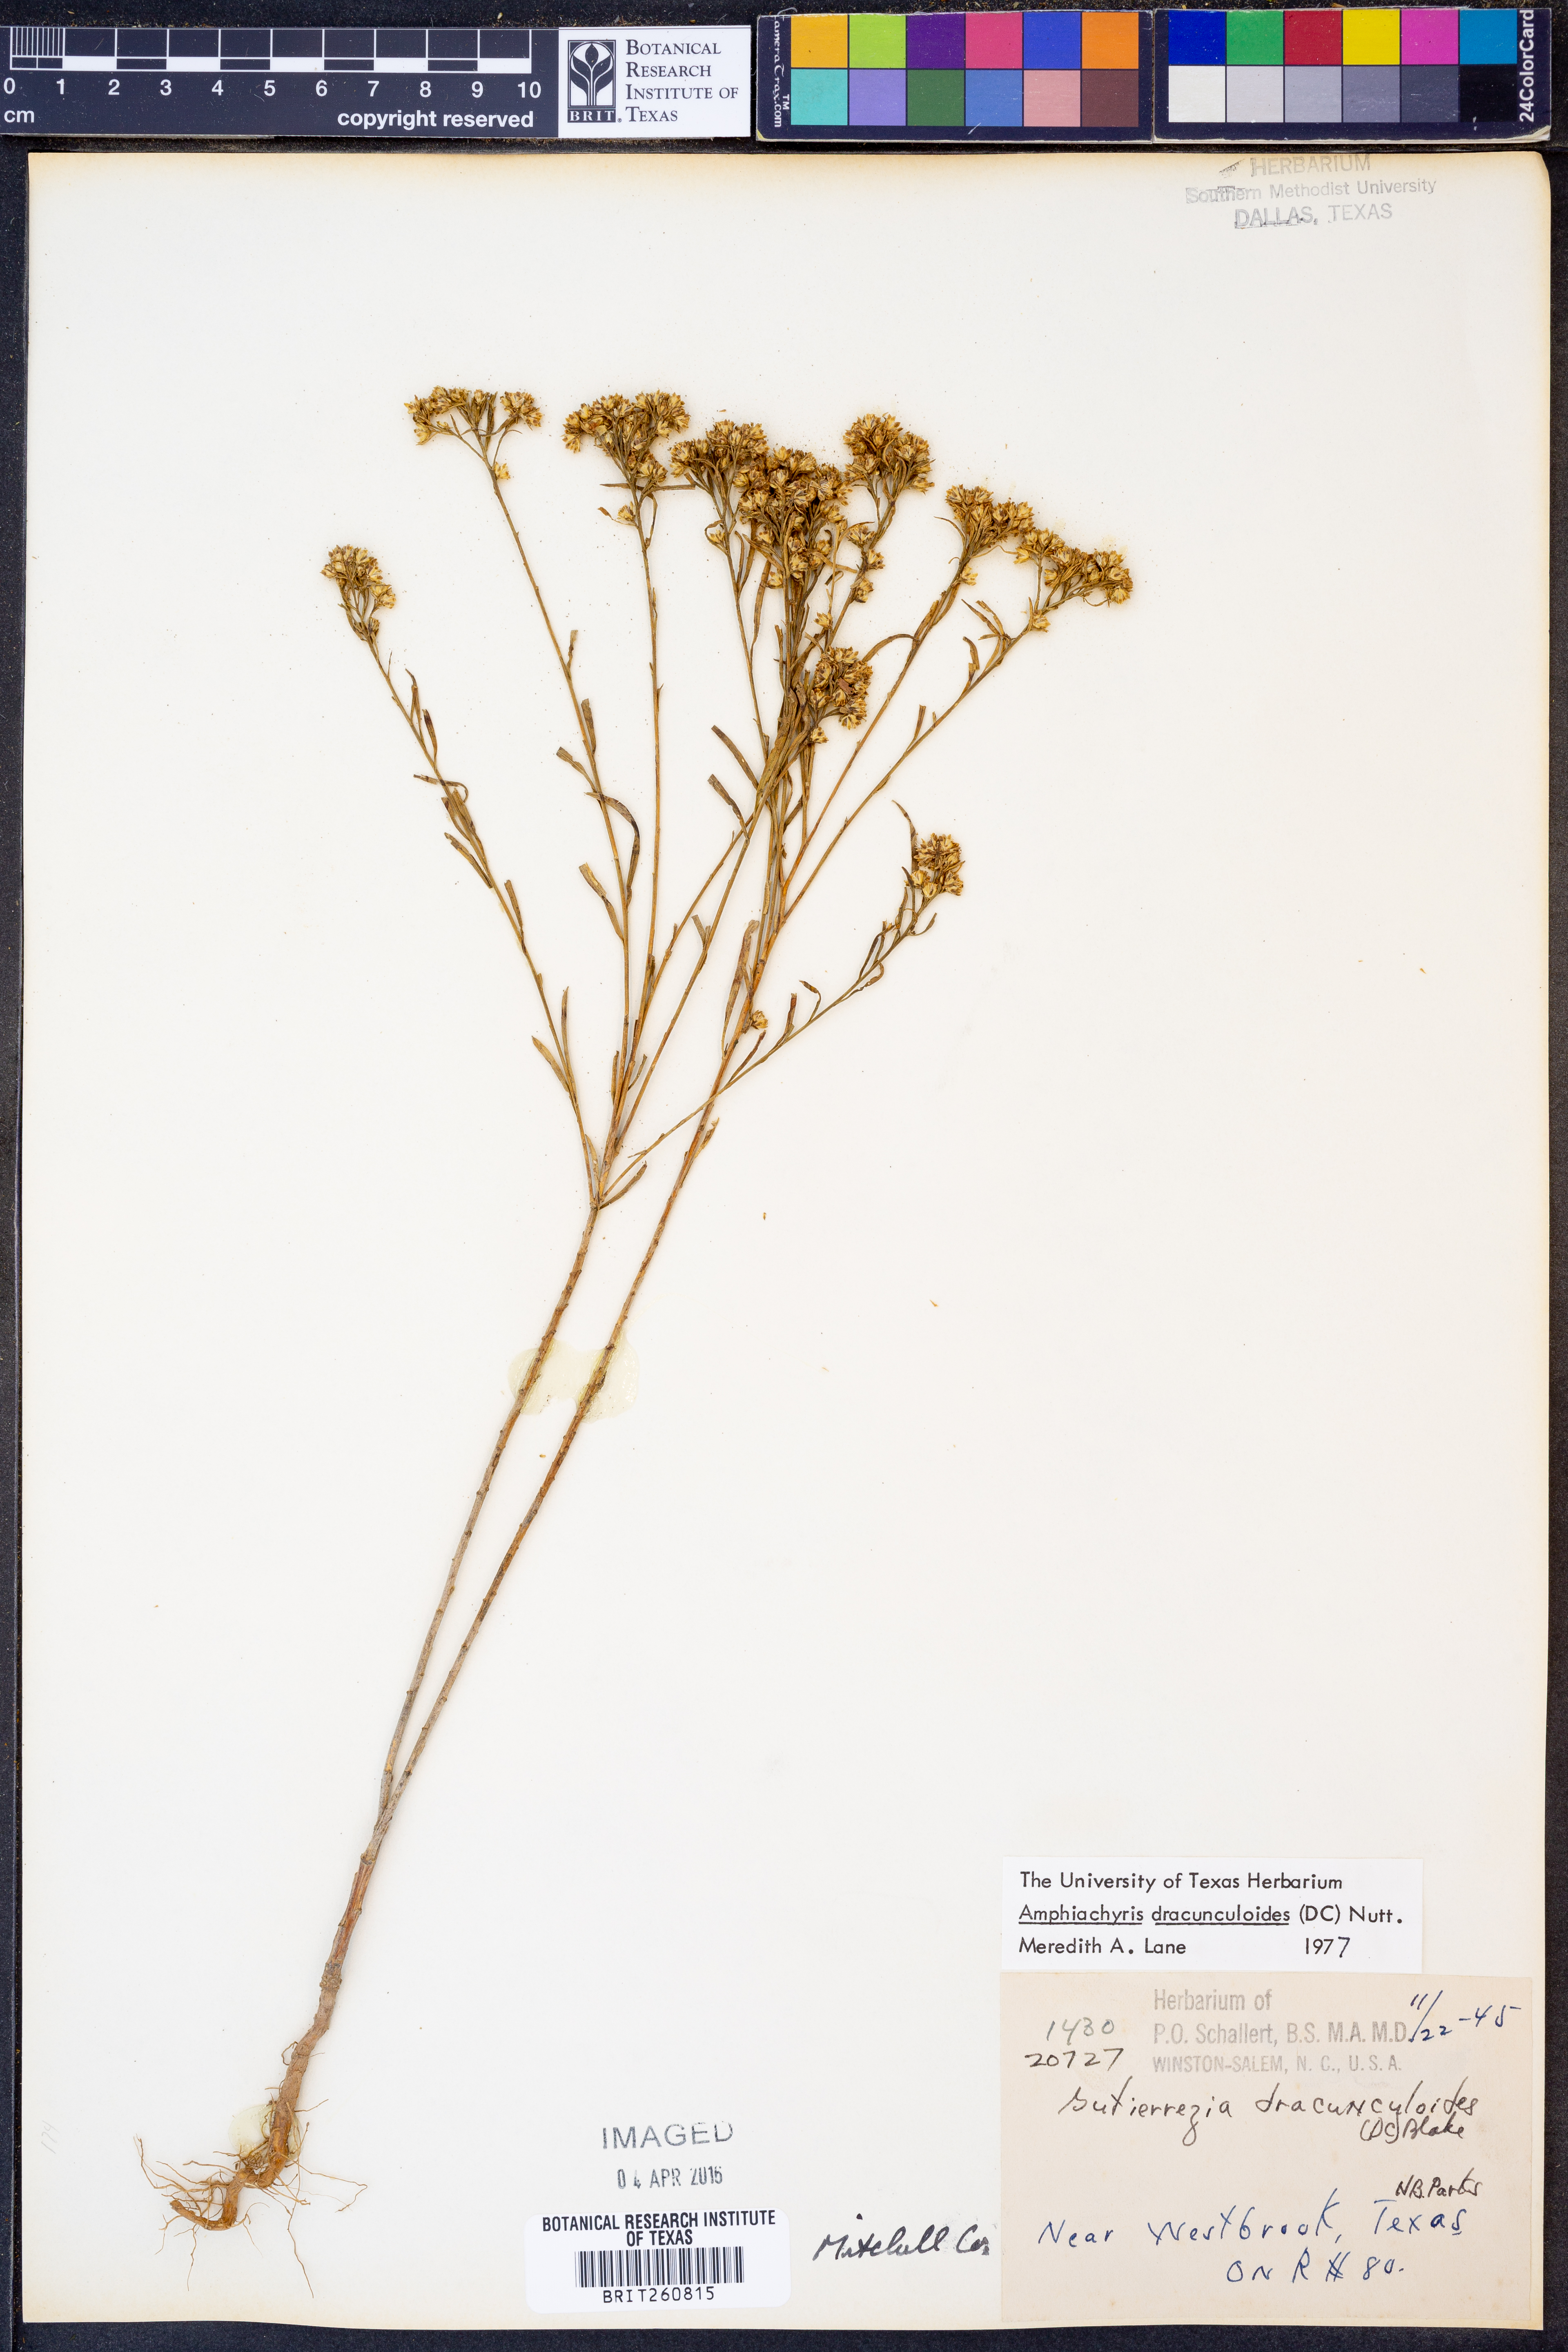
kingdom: Plantae
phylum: Tracheophyta
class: Magnoliopsida
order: Asterales
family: Asteraceae
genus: Amphiachyris
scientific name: Amphiachyris dracunculoides
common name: Broomweed
